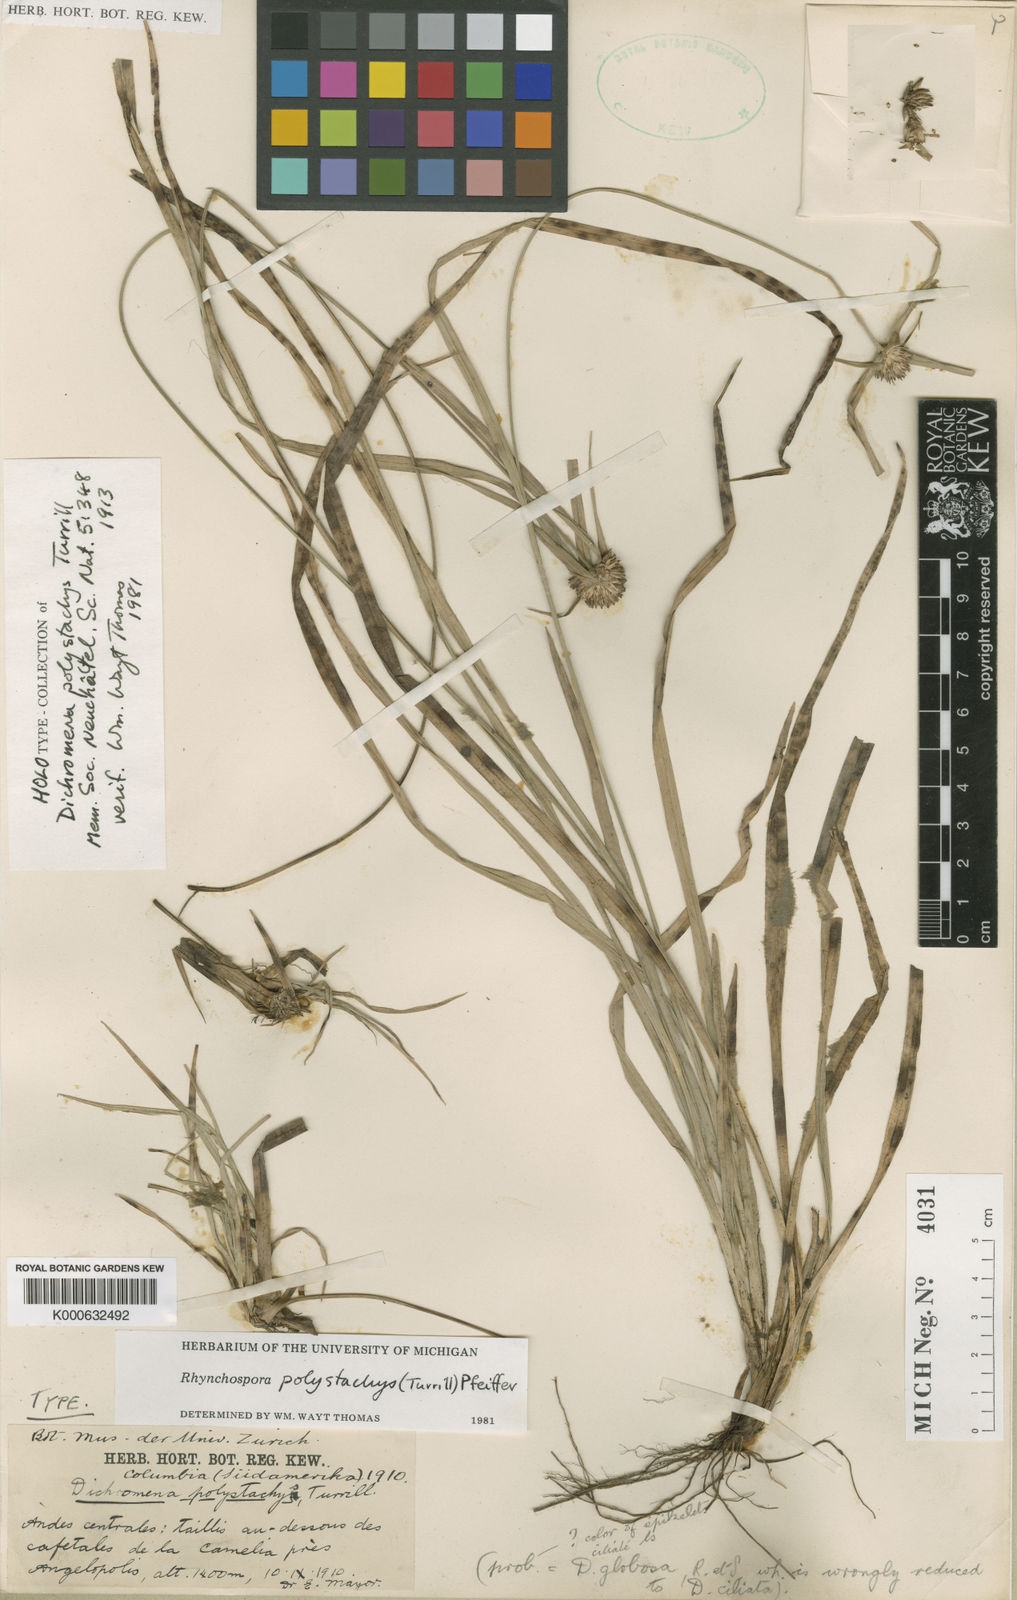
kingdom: Plantae
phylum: Tracheophyta
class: Liliopsida
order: Poales
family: Cyperaceae
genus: Rhynchospora
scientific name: Rhynchospora polystachys
